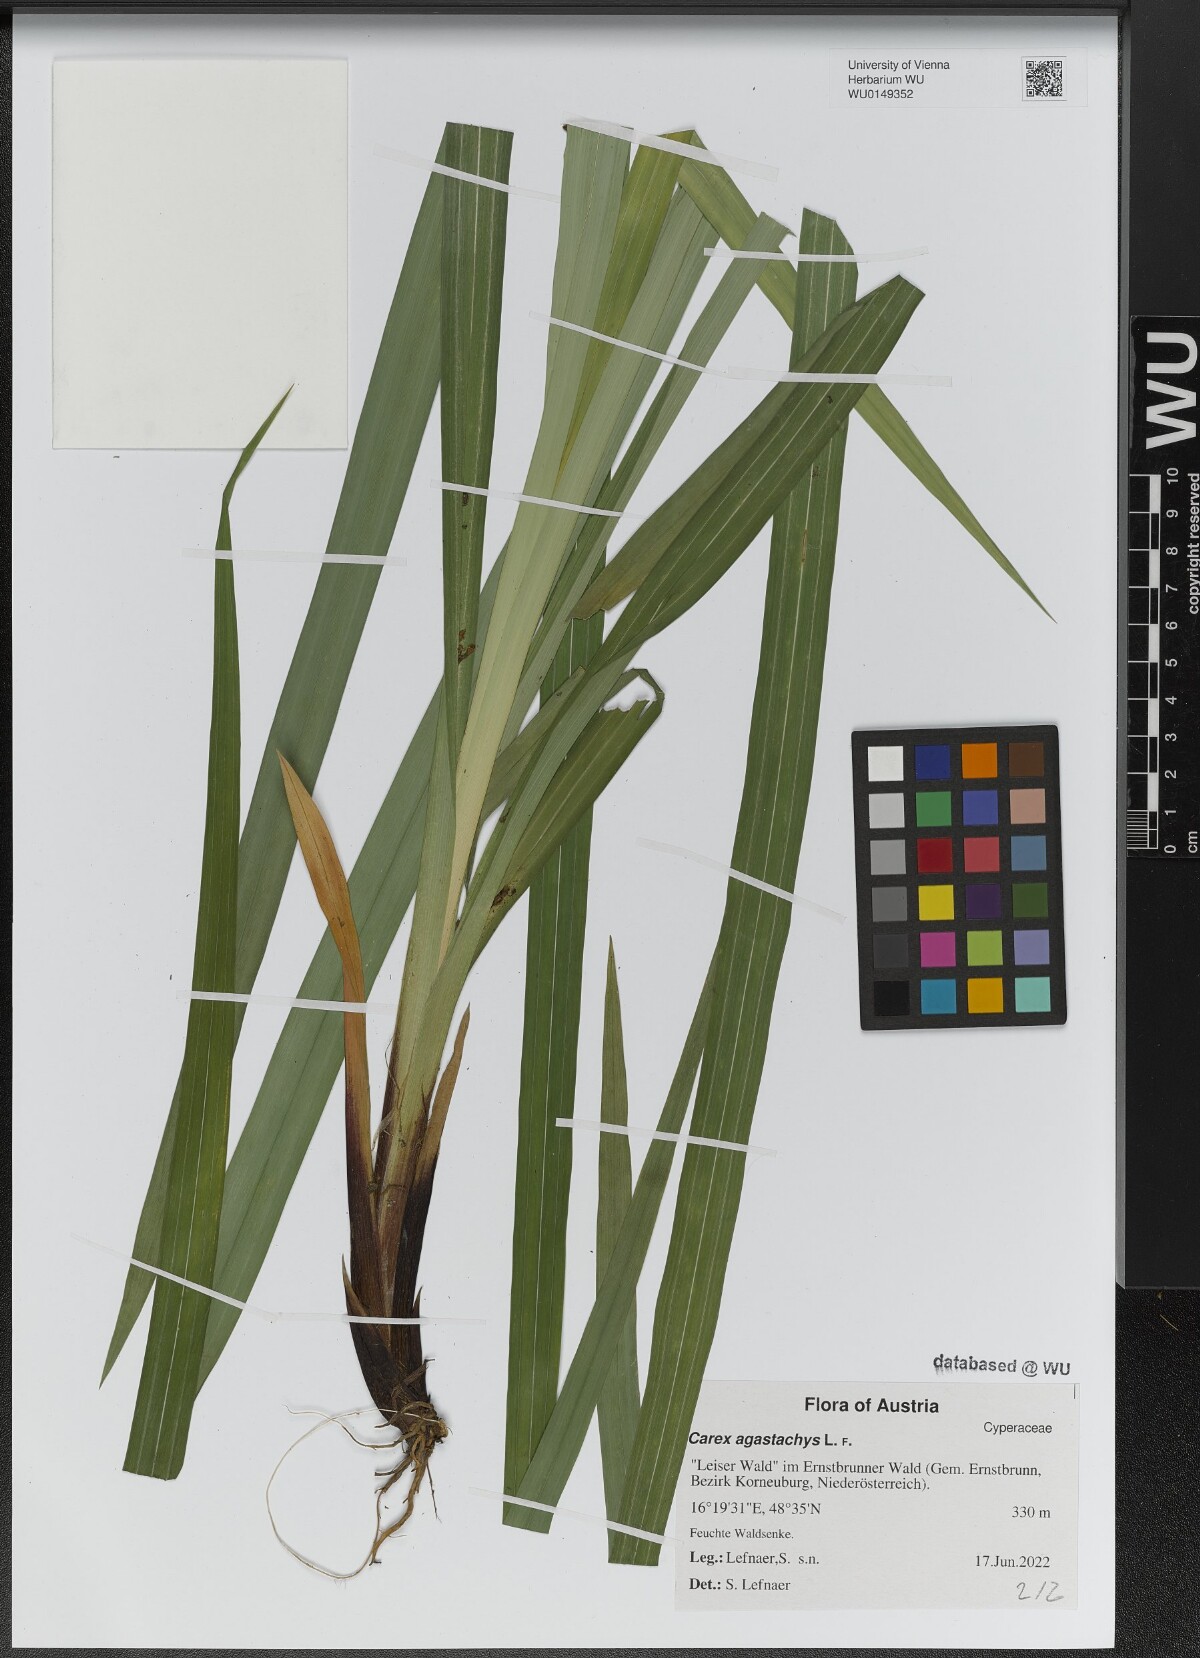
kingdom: Plantae
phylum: Tracheophyta
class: Liliopsida
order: Poales
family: Cyperaceae
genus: Carex
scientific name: Carex agastachys
